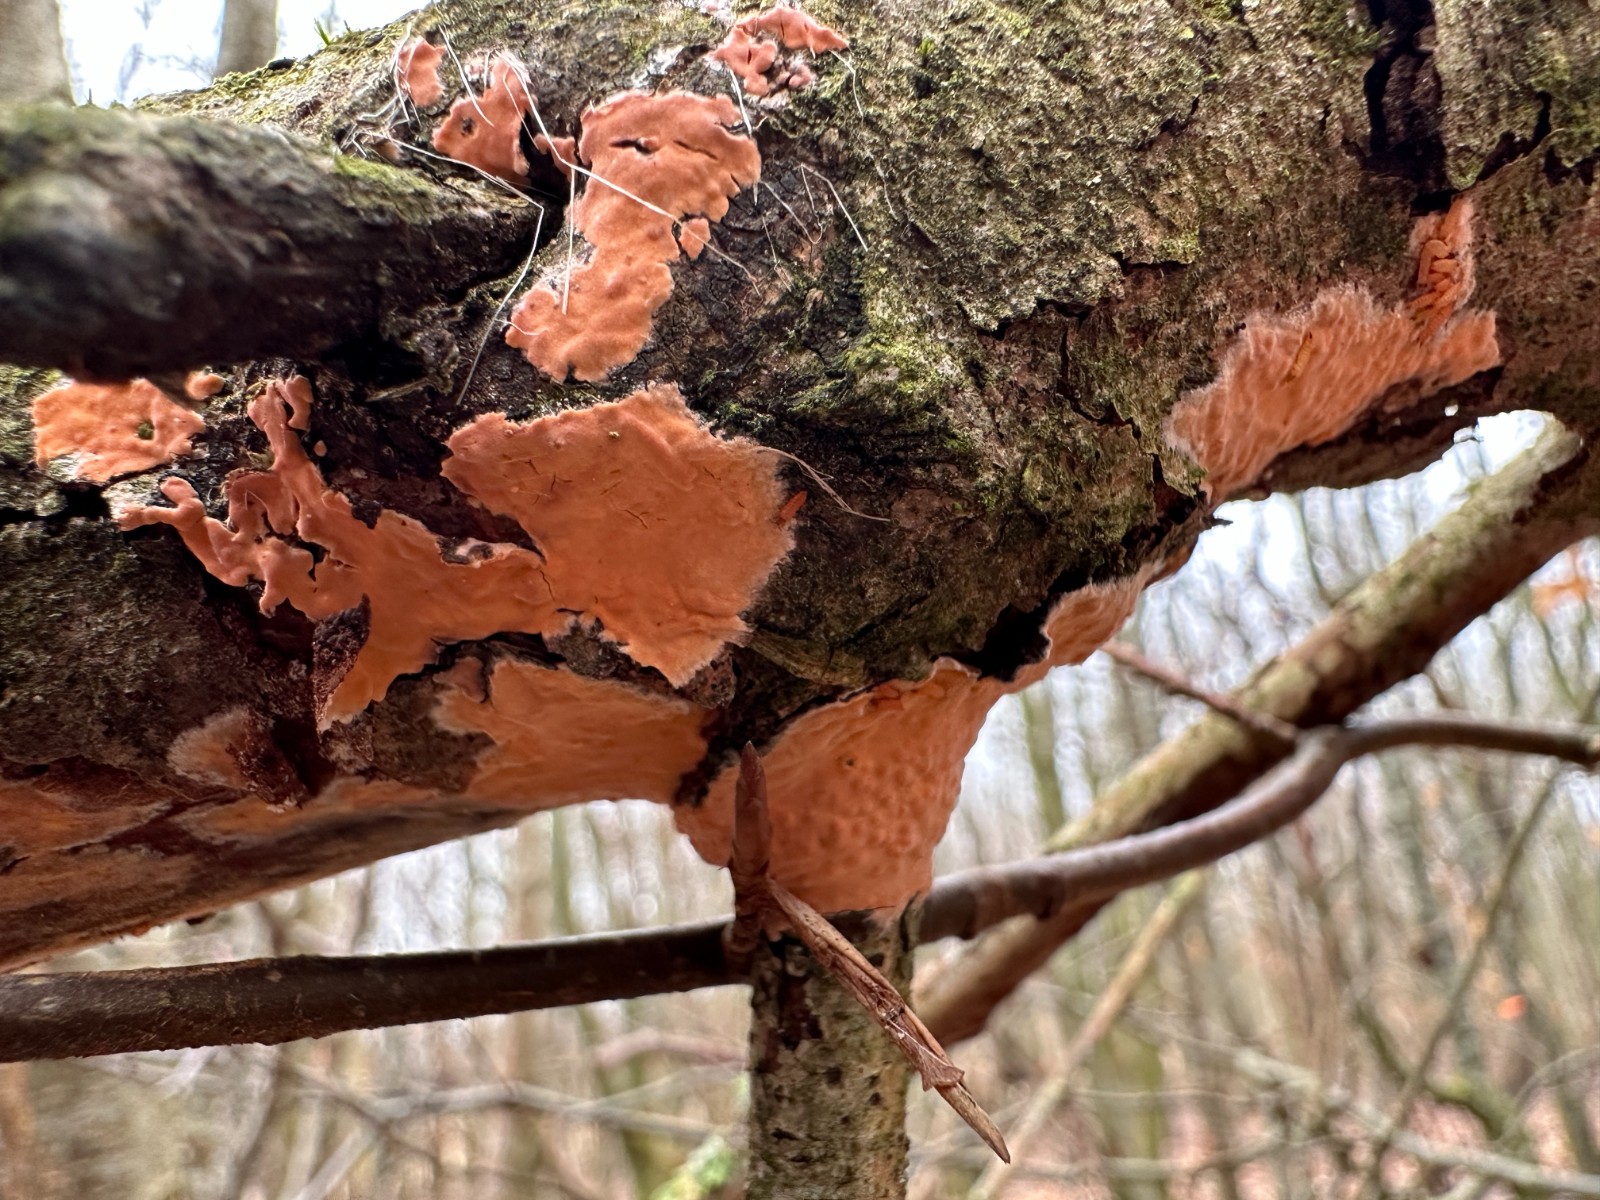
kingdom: Fungi
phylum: Basidiomycota
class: Agaricomycetes
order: Russulales
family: Peniophoraceae
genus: Peniophora
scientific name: Peniophora incarnata
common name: laksefarvet voksskind
